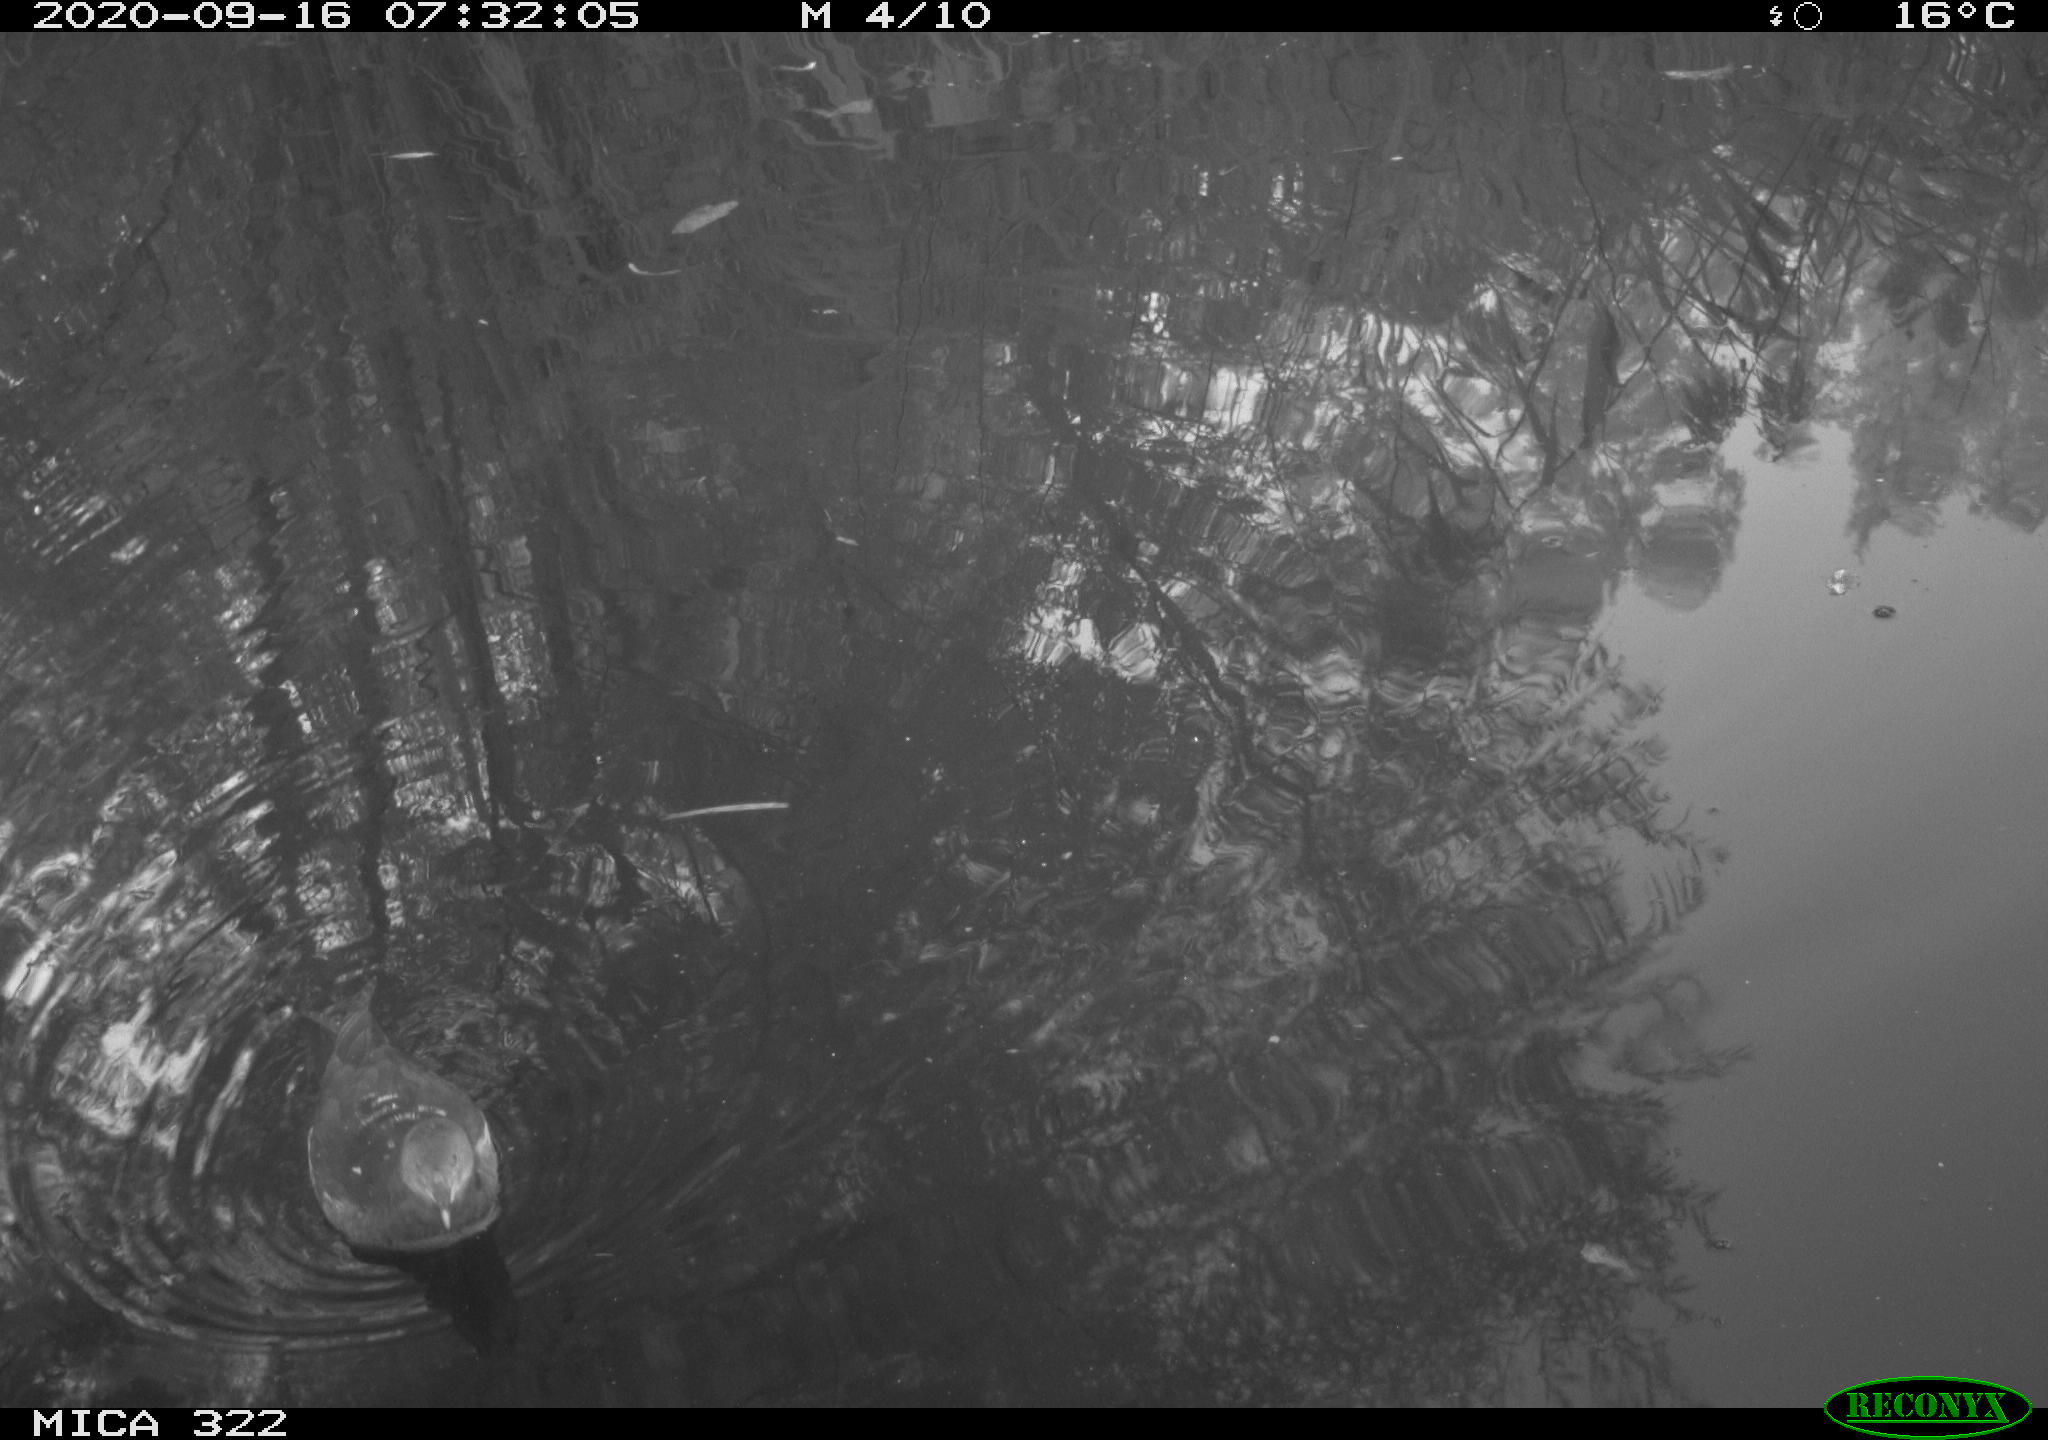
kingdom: Animalia
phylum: Chordata
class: Aves
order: Gruiformes
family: Rallidae
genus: Gallinula
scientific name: Gallinula chloropus
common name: Common moorhen
